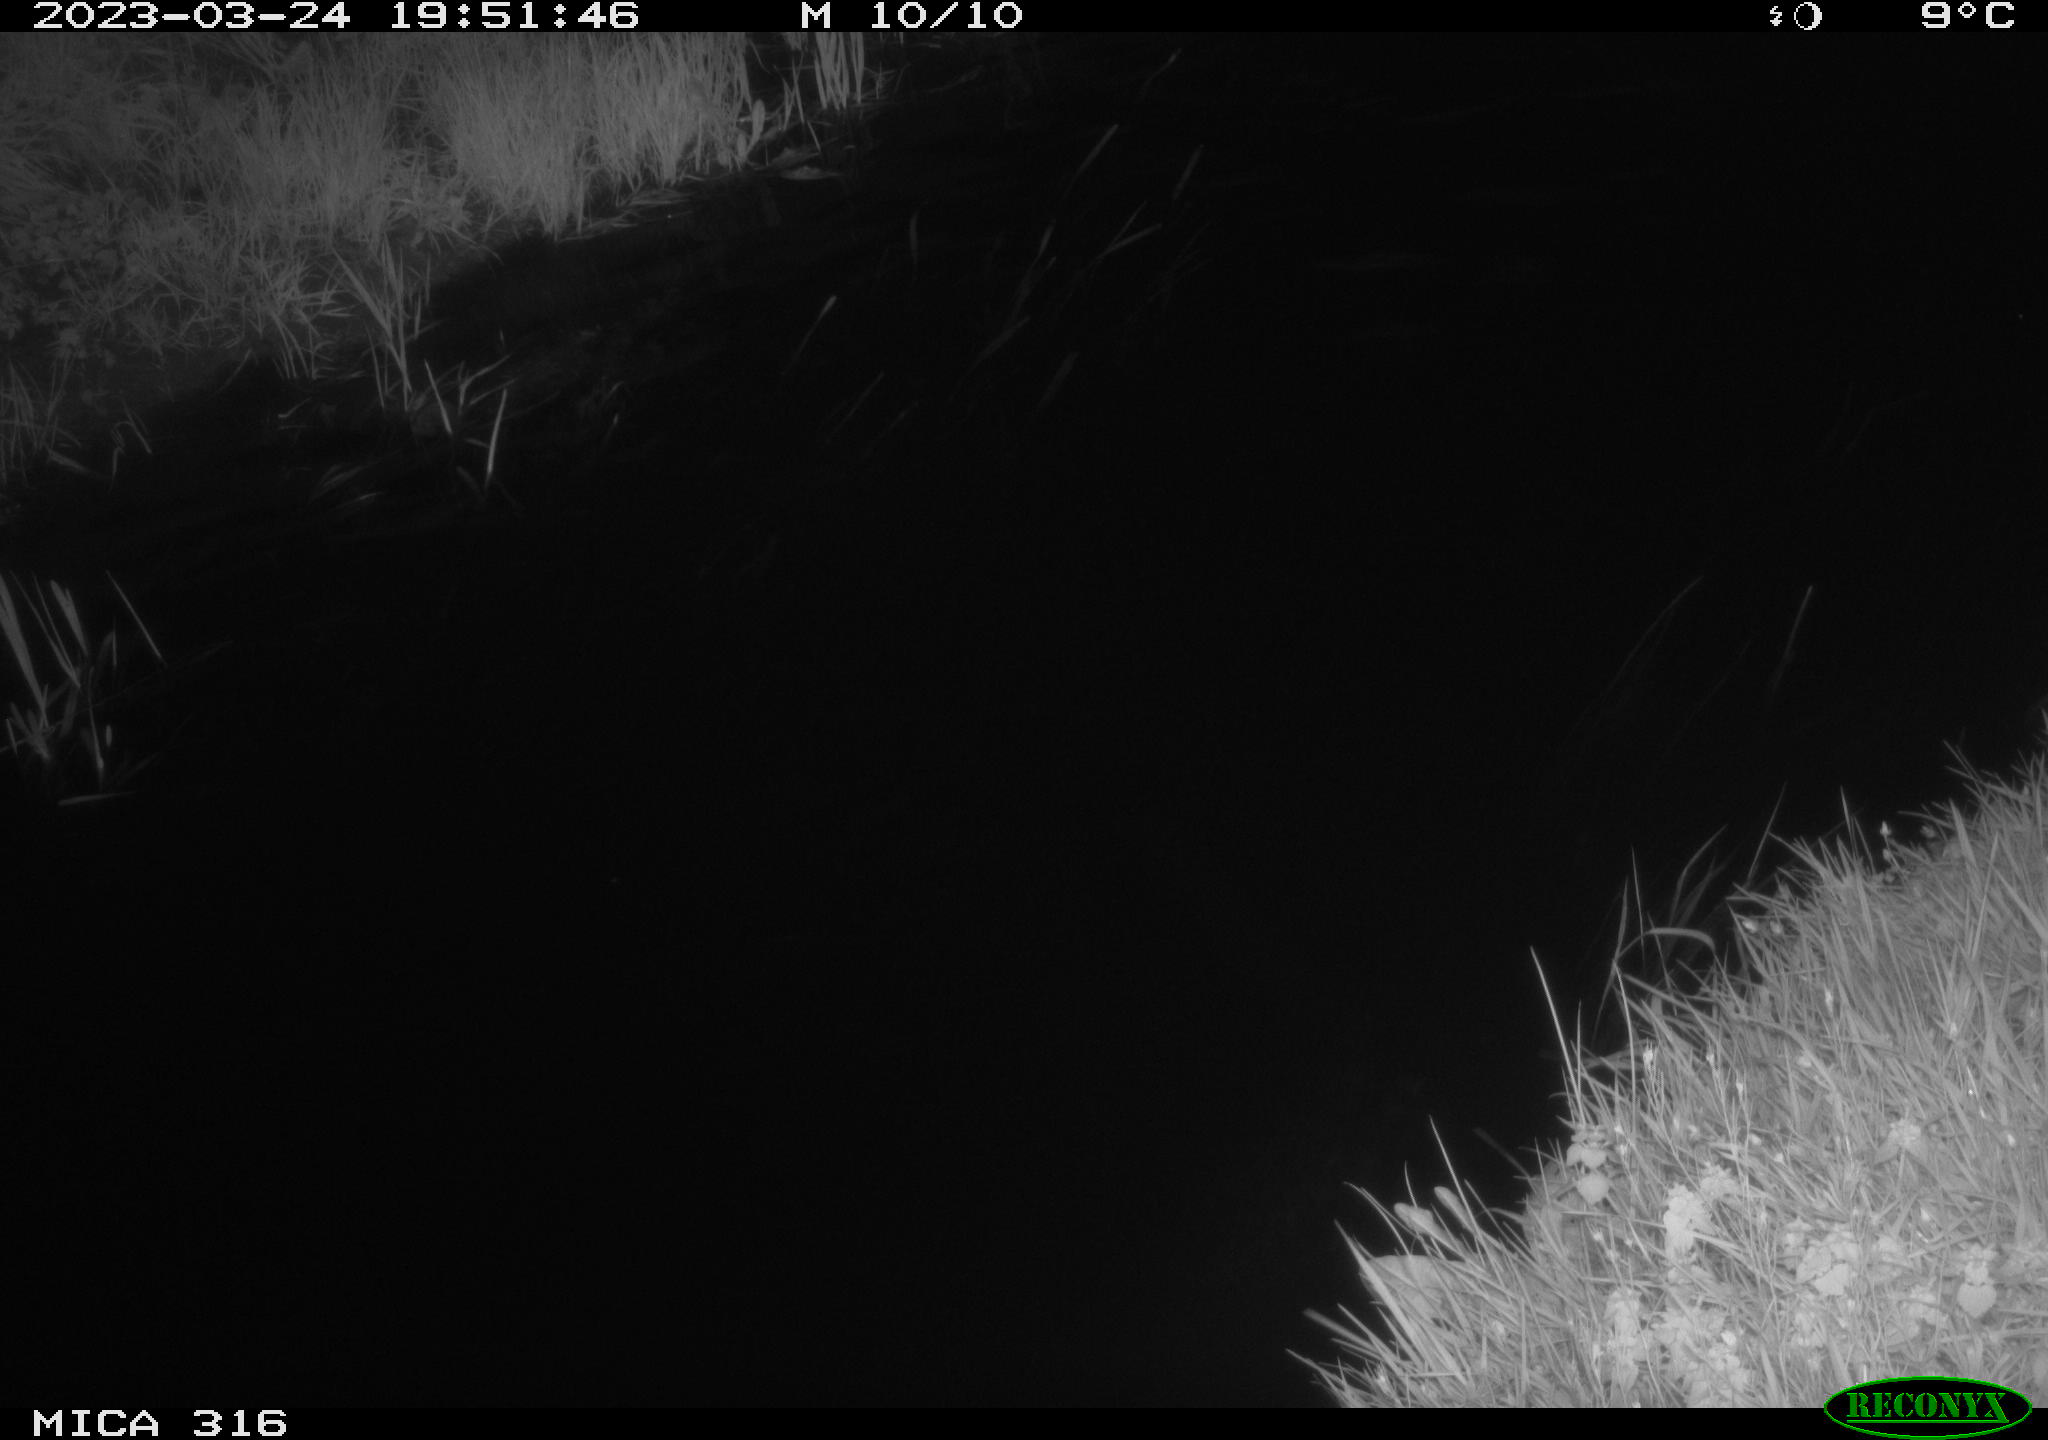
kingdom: Animalia
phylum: Chordata
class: Aves
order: Anseriformes
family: Anatidae
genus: Anas
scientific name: Anas
